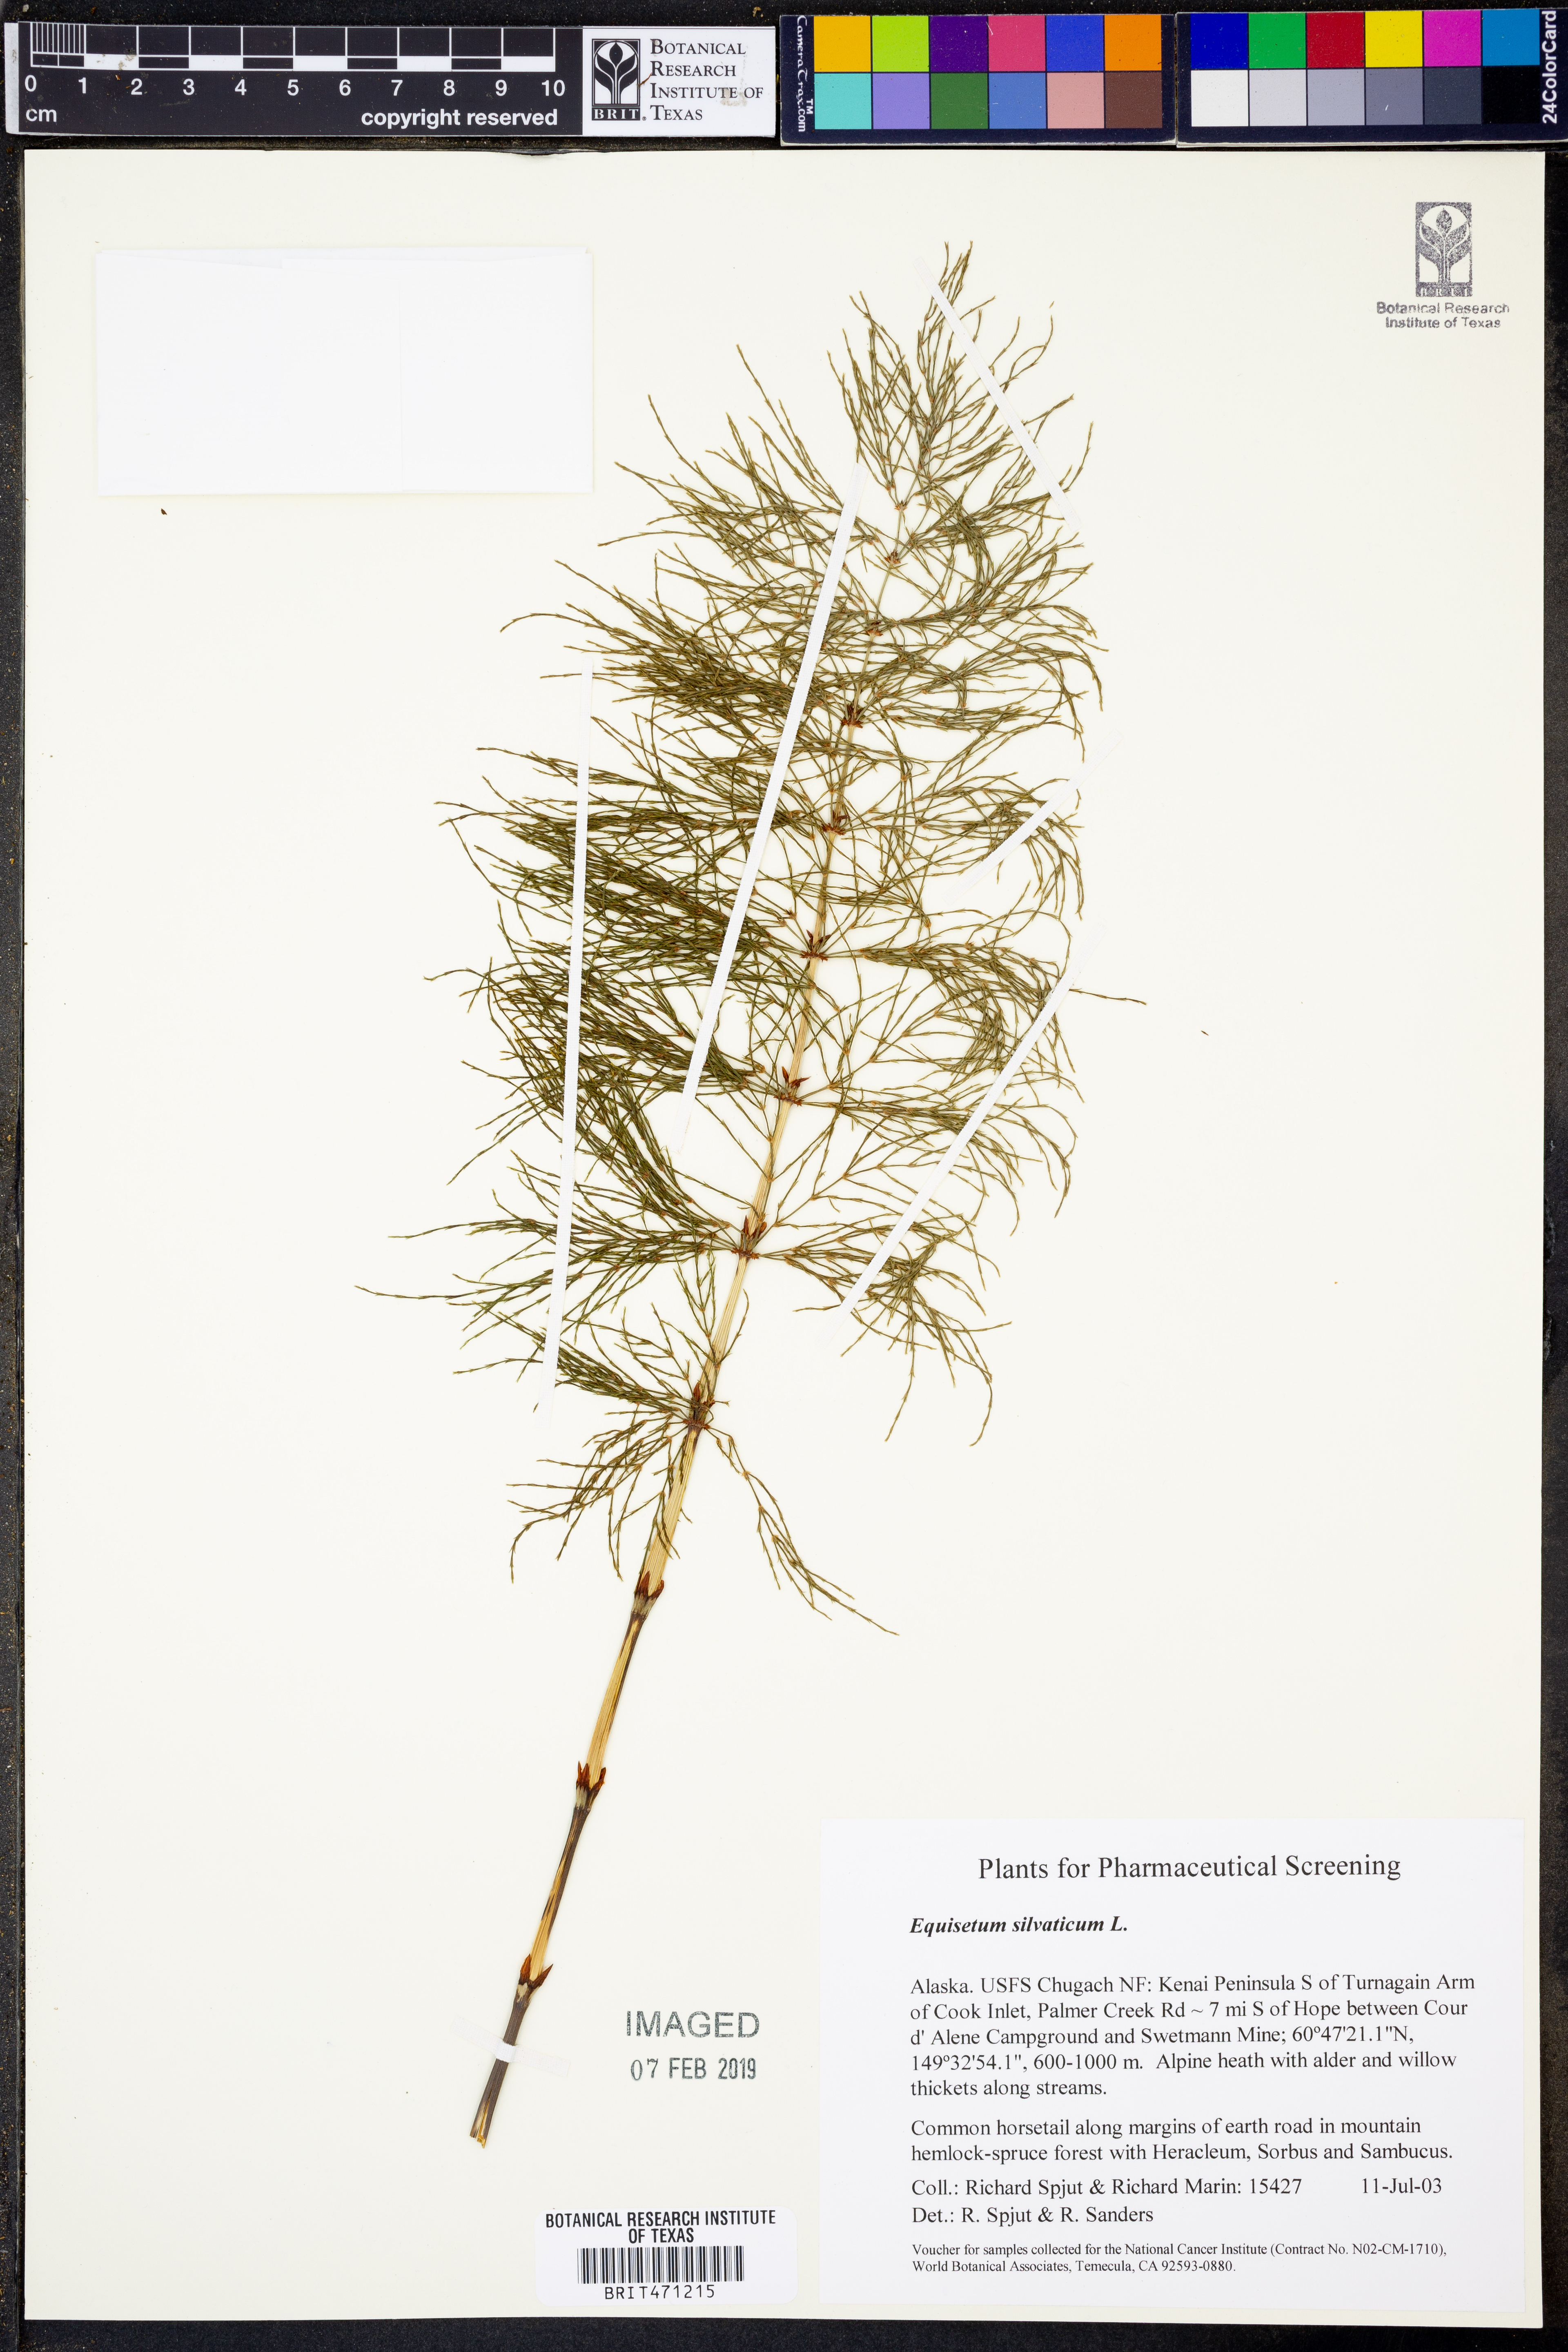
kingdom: Plantae
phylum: Tracheophyta
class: Polypodiopsida
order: Equisetales
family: Equisetaceae
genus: Equisetum
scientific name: Equisetum sylvaticum
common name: Wood horsetail
